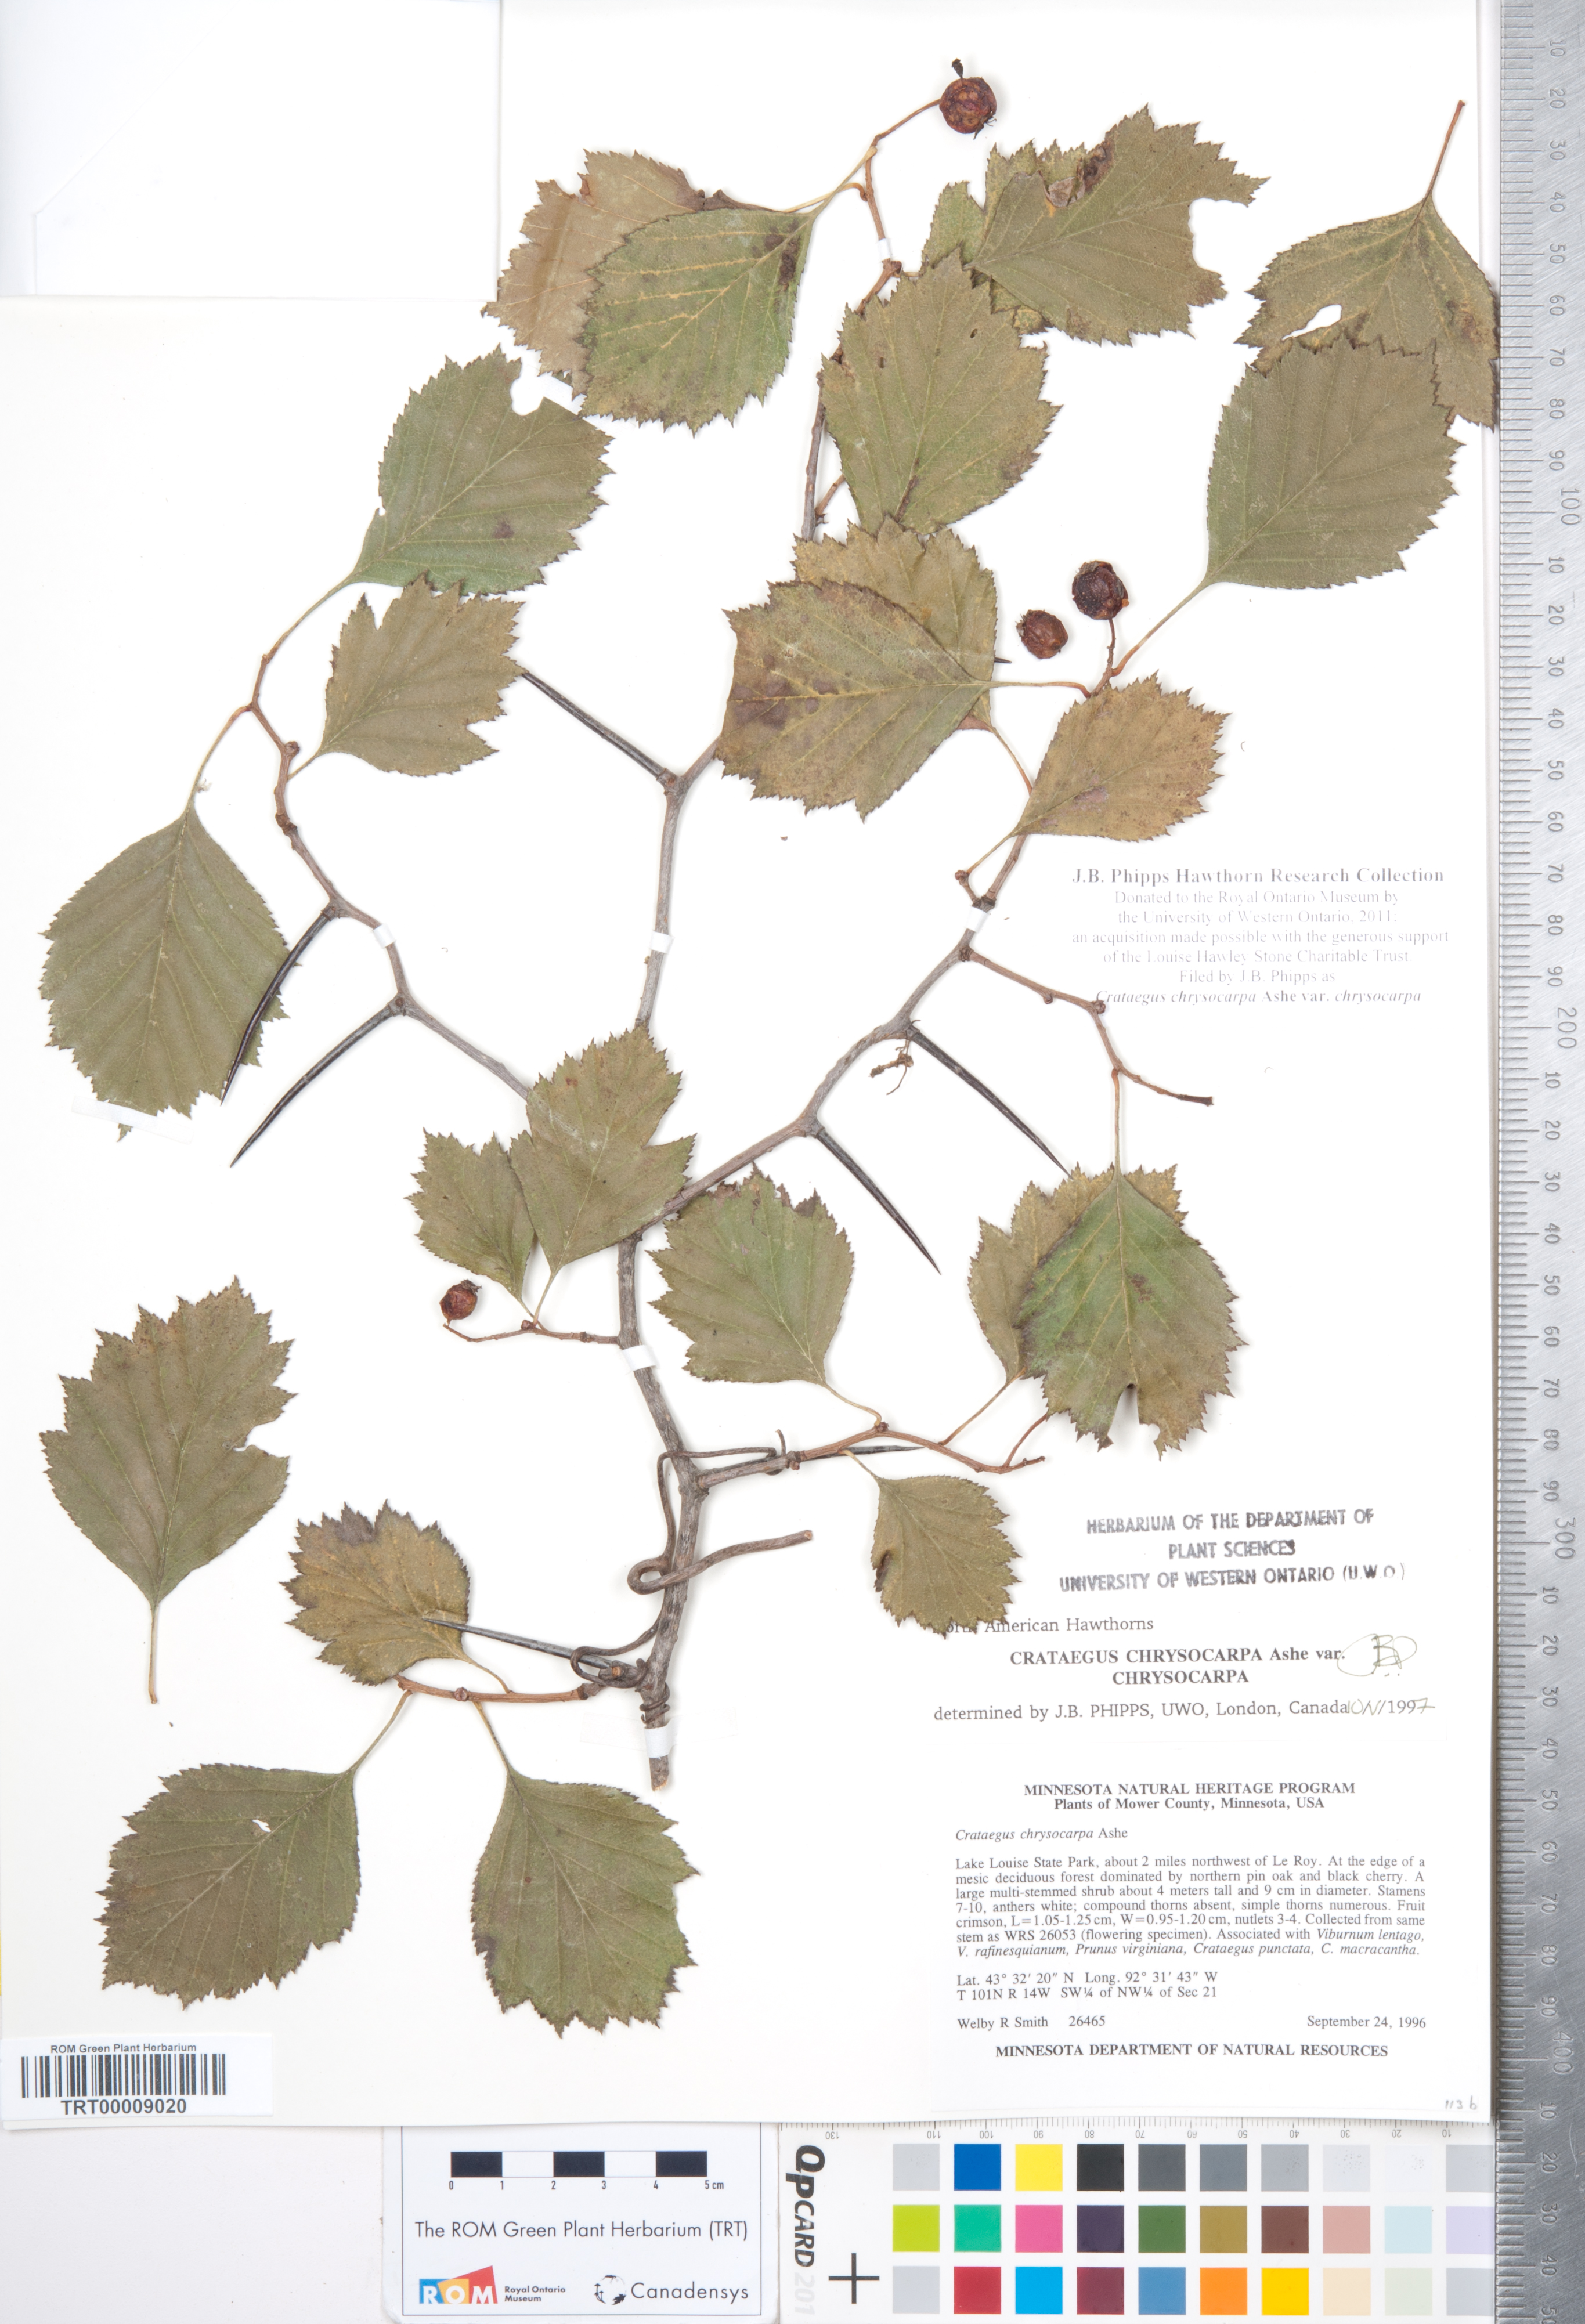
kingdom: Plantae
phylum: Tracheophyta
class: Magnoliopsida
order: Rosales
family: Rosaceae
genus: Crataegus
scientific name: Crataegus chrysocarpa
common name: Fire-berry hawthorn
